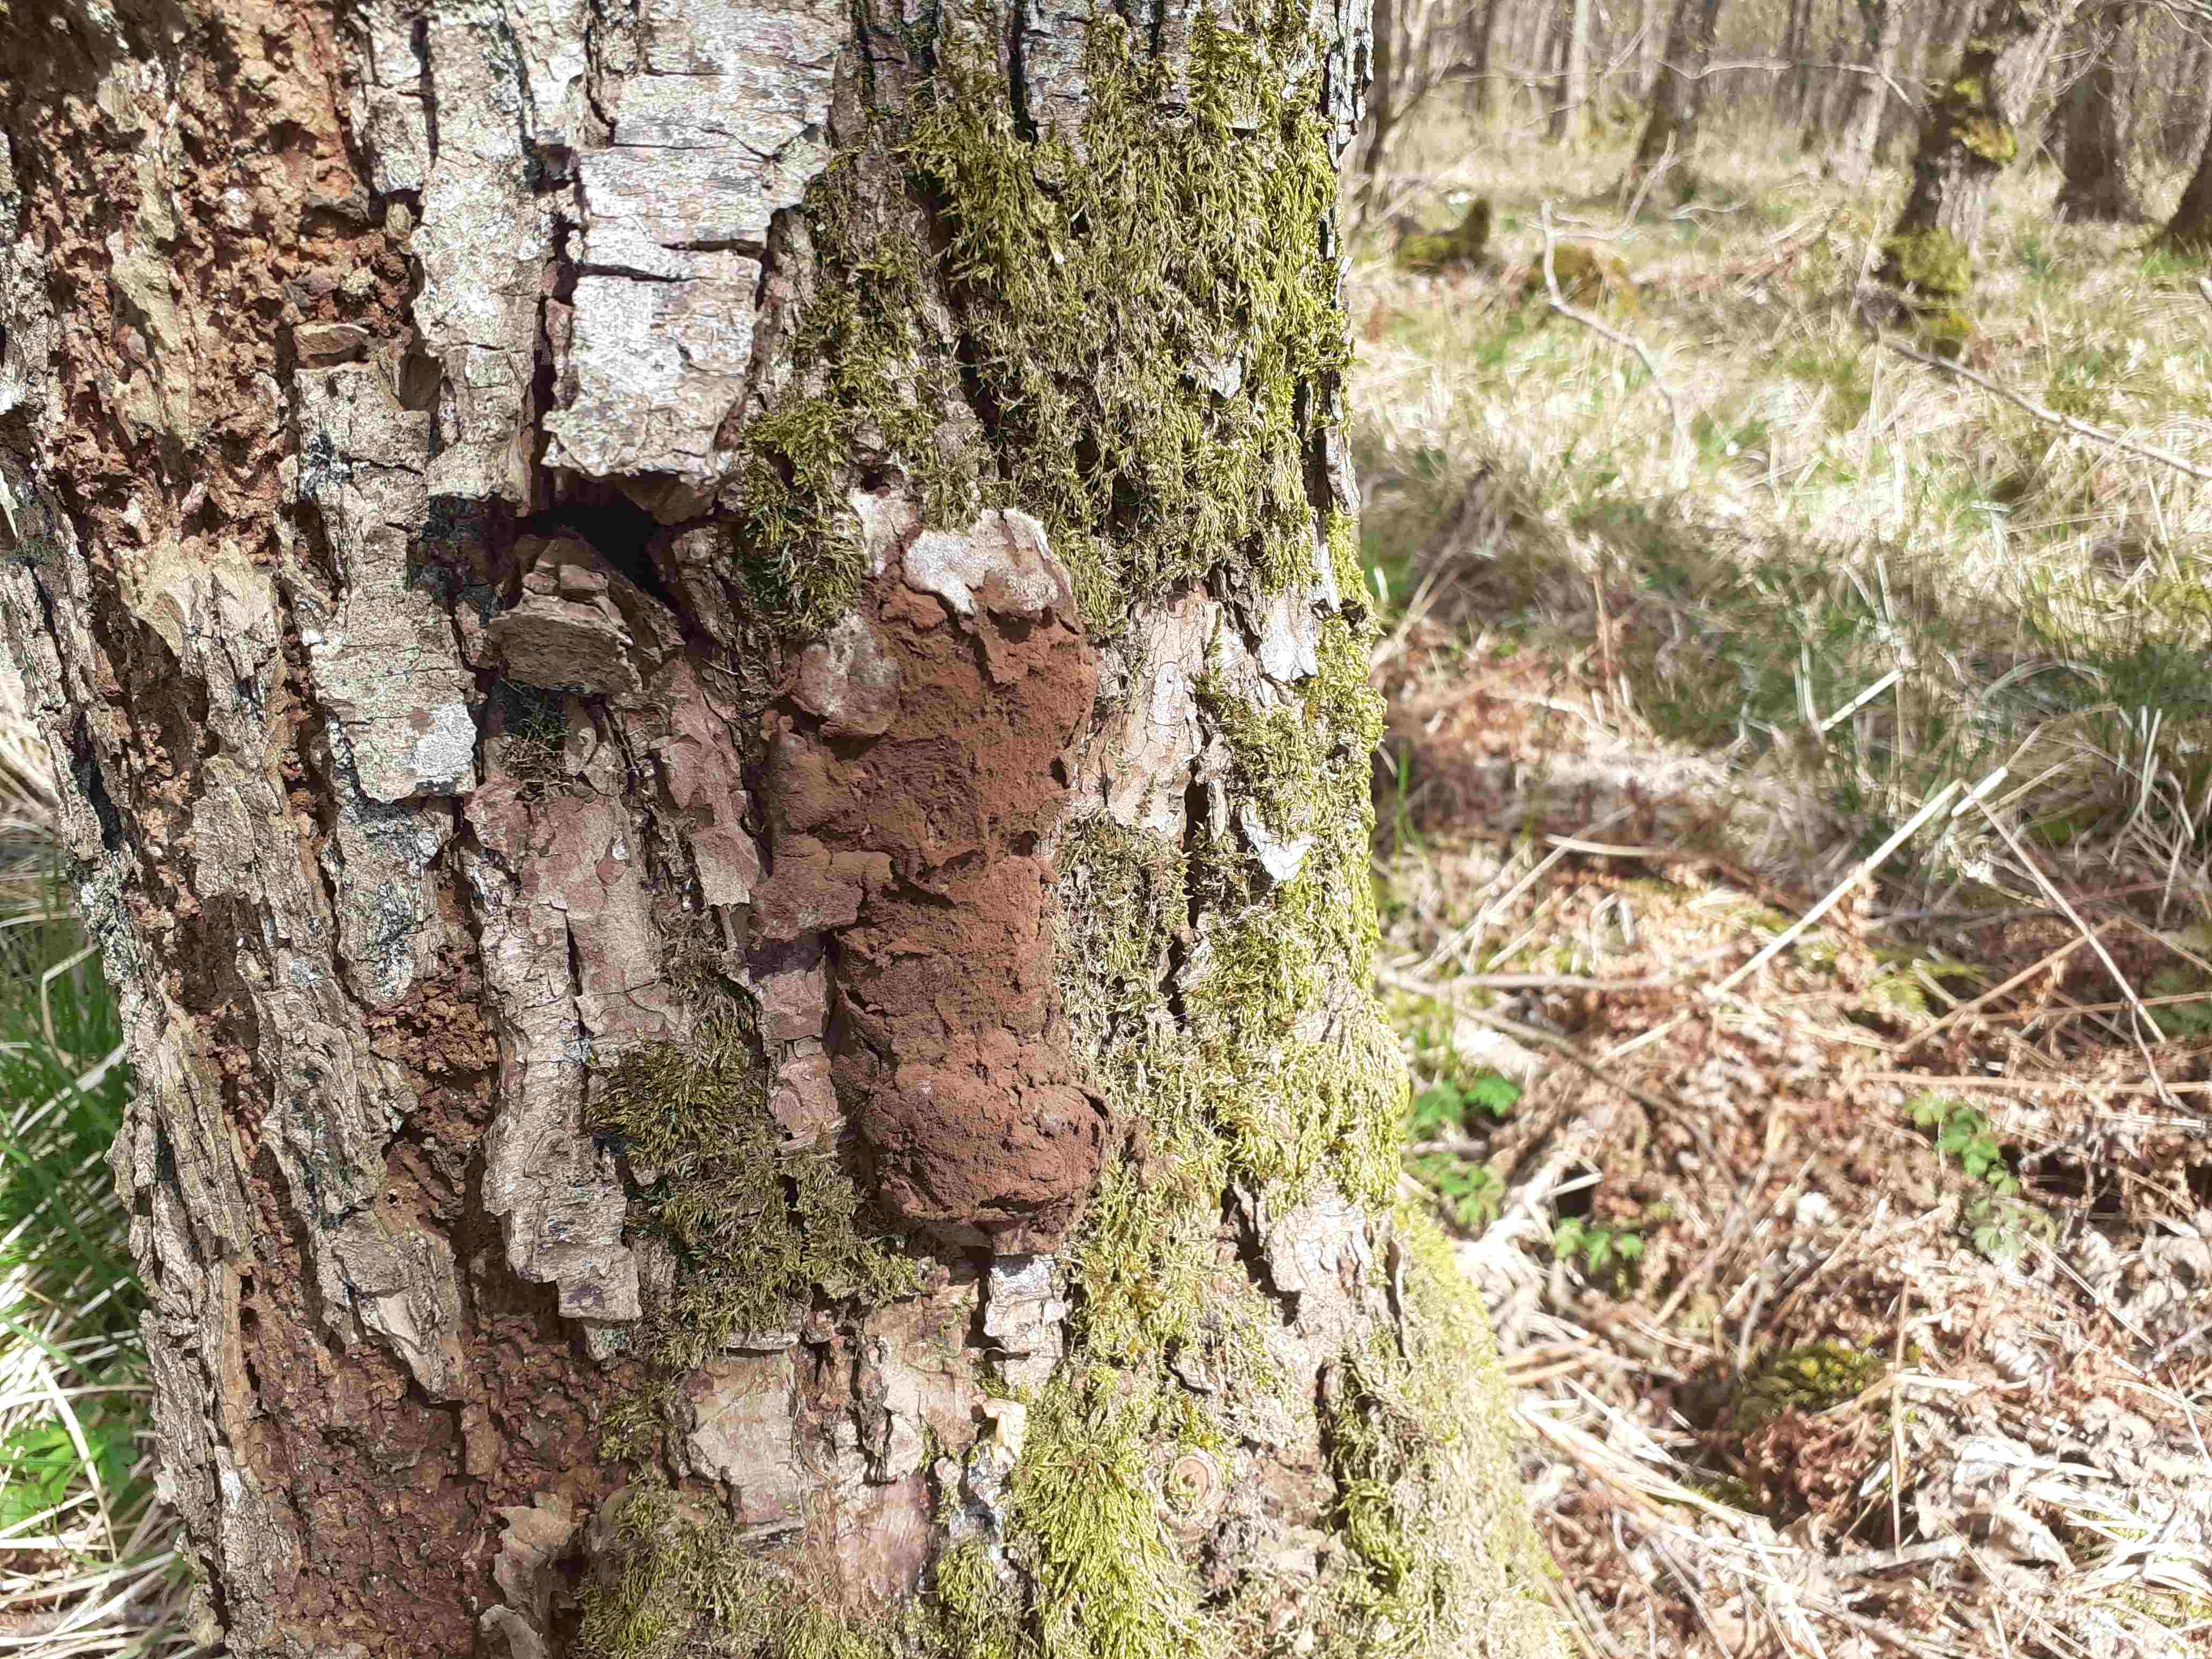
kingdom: Protozoa
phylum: Mycetozoa
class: Myxomycetes
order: Cribrariales
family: Tubiferaceae
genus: Reticularia
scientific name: Reticularia lycoperdon
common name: skinnende støvpude
